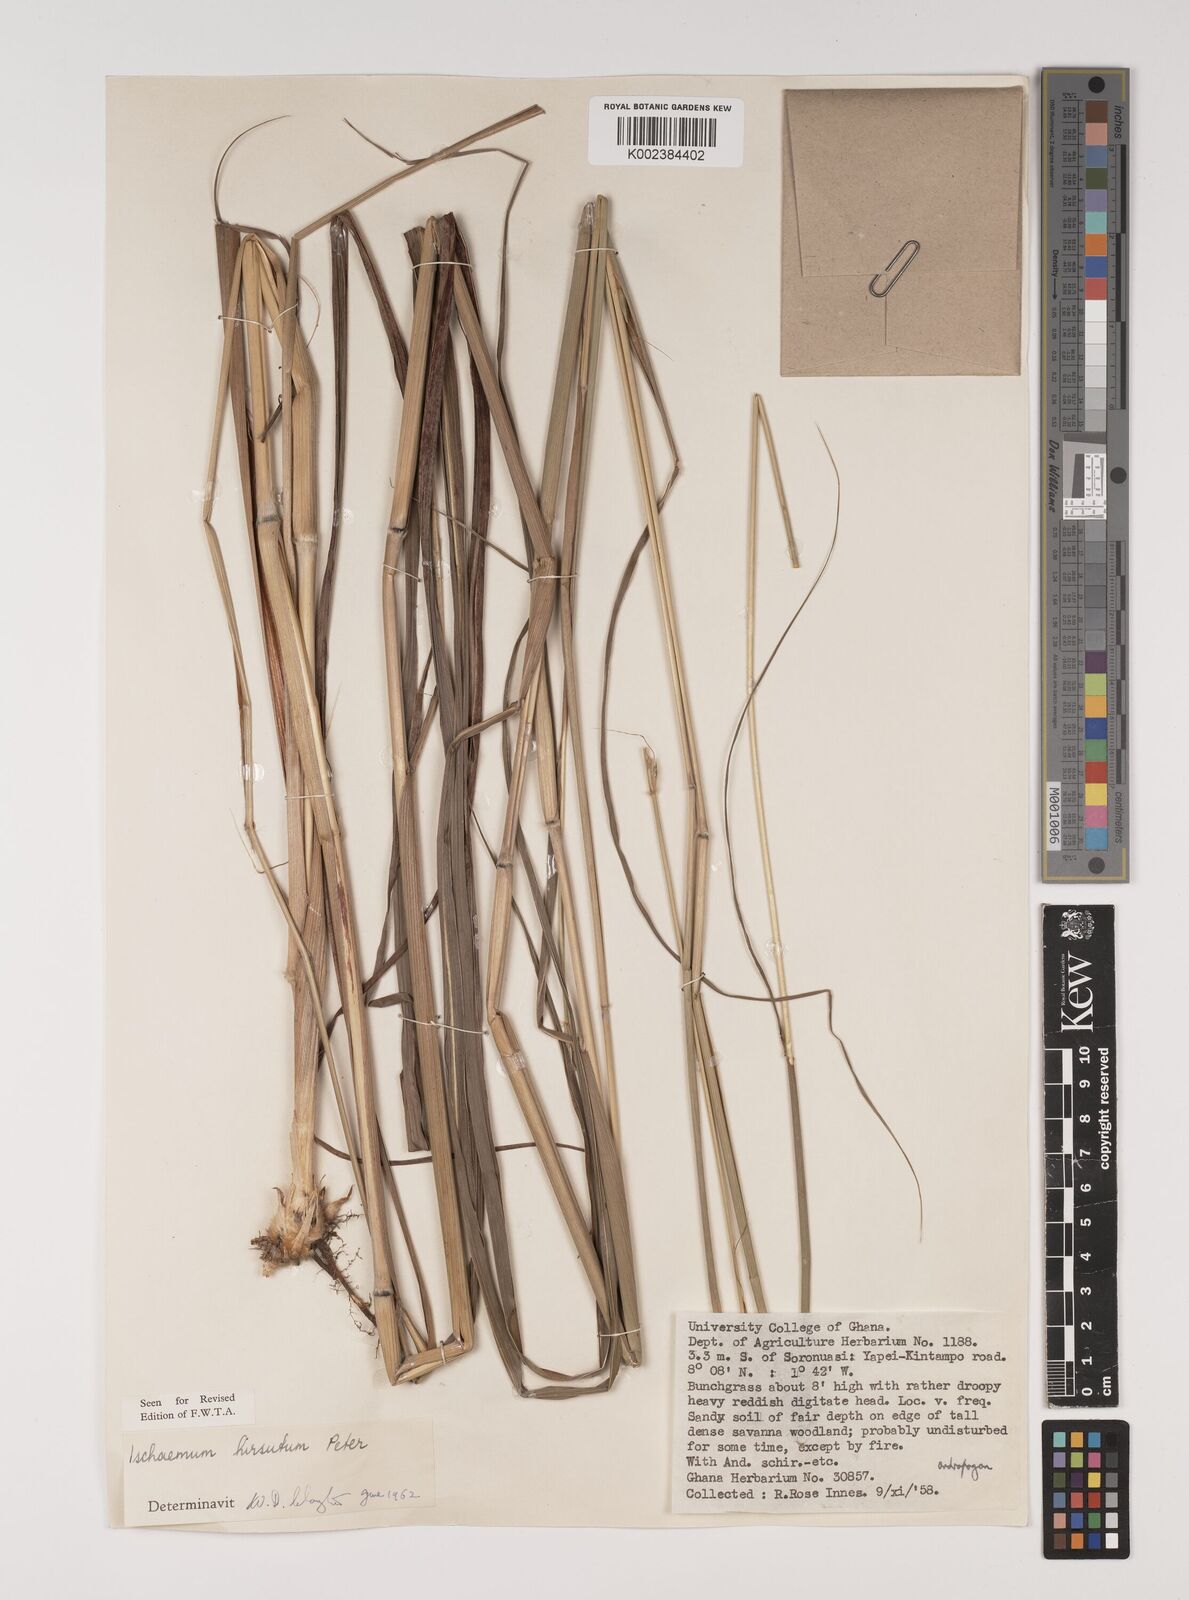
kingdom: Plantae
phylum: Tracheophyta
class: Liliopsida
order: Poales
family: Poaceae
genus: Rottboellia
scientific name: Rottboellia villosa
